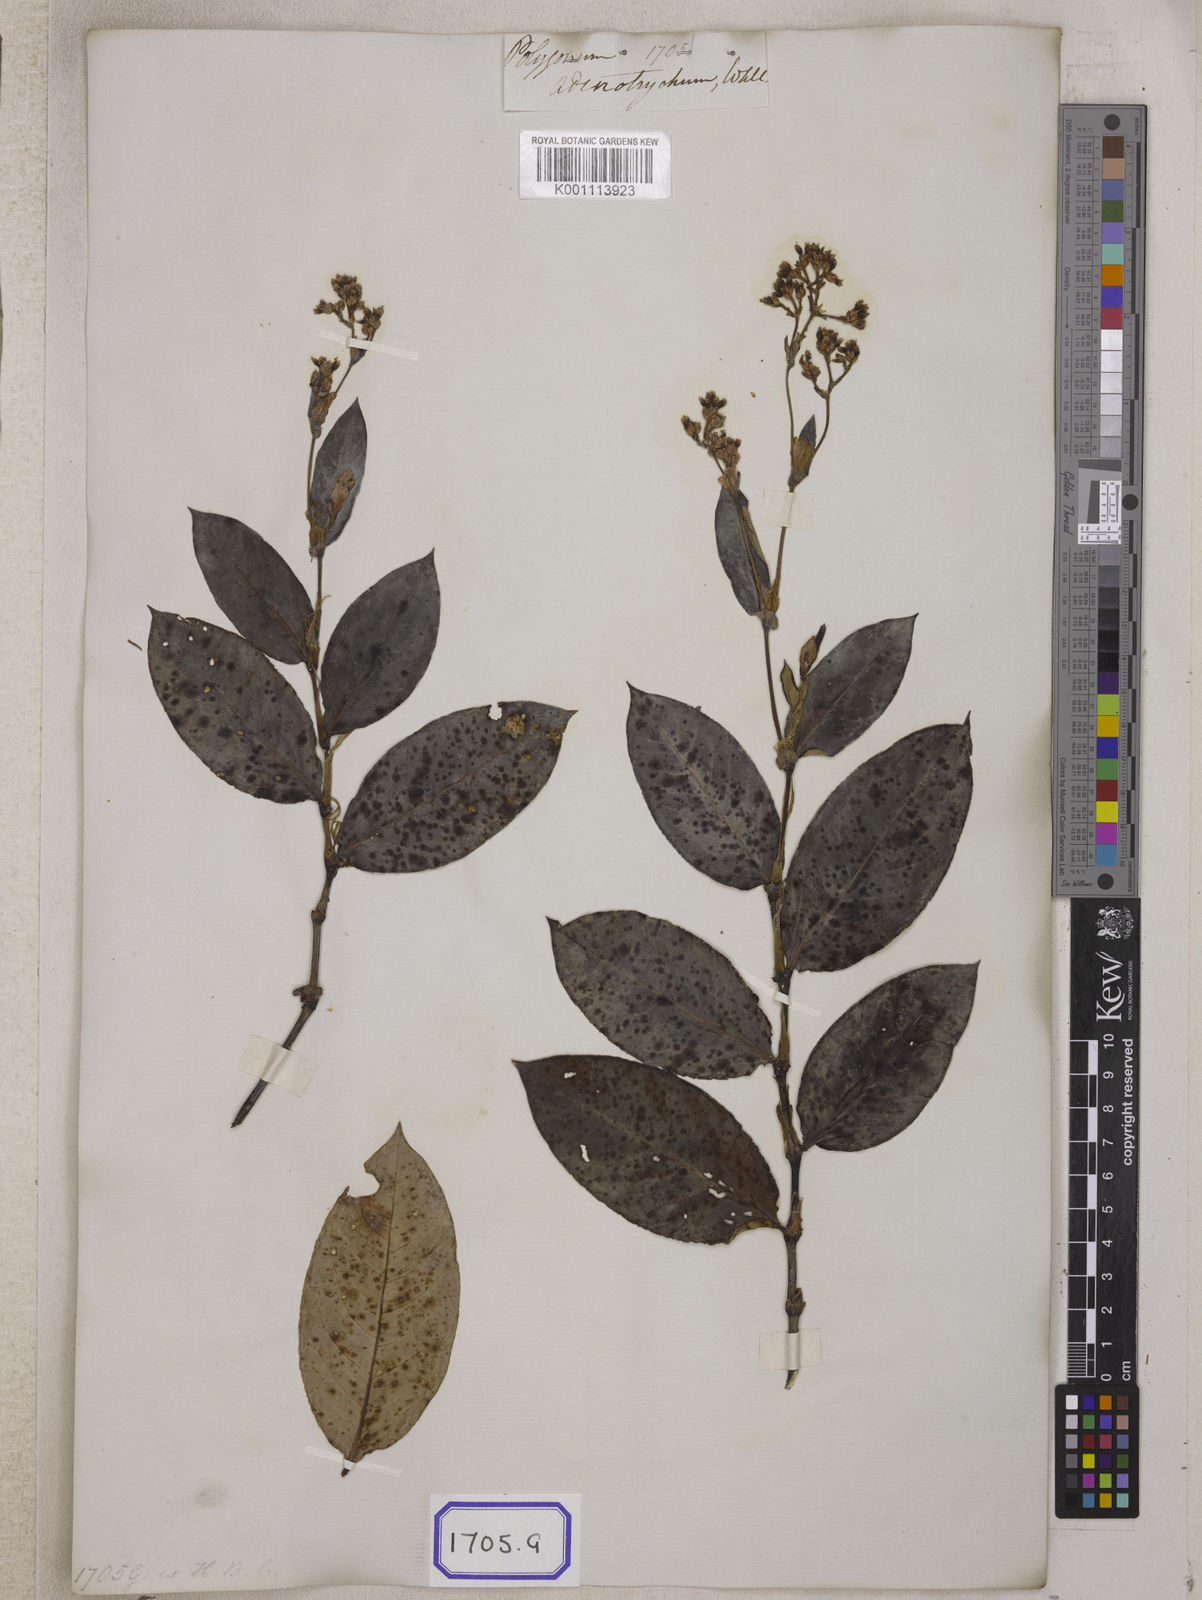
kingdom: Plantae
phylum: Tracheophyta
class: Magnoliopsida
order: Caryophyllales
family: Polygonaceae
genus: Persicaria
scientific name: Persicaria chinensis
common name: Chinese knotweed
